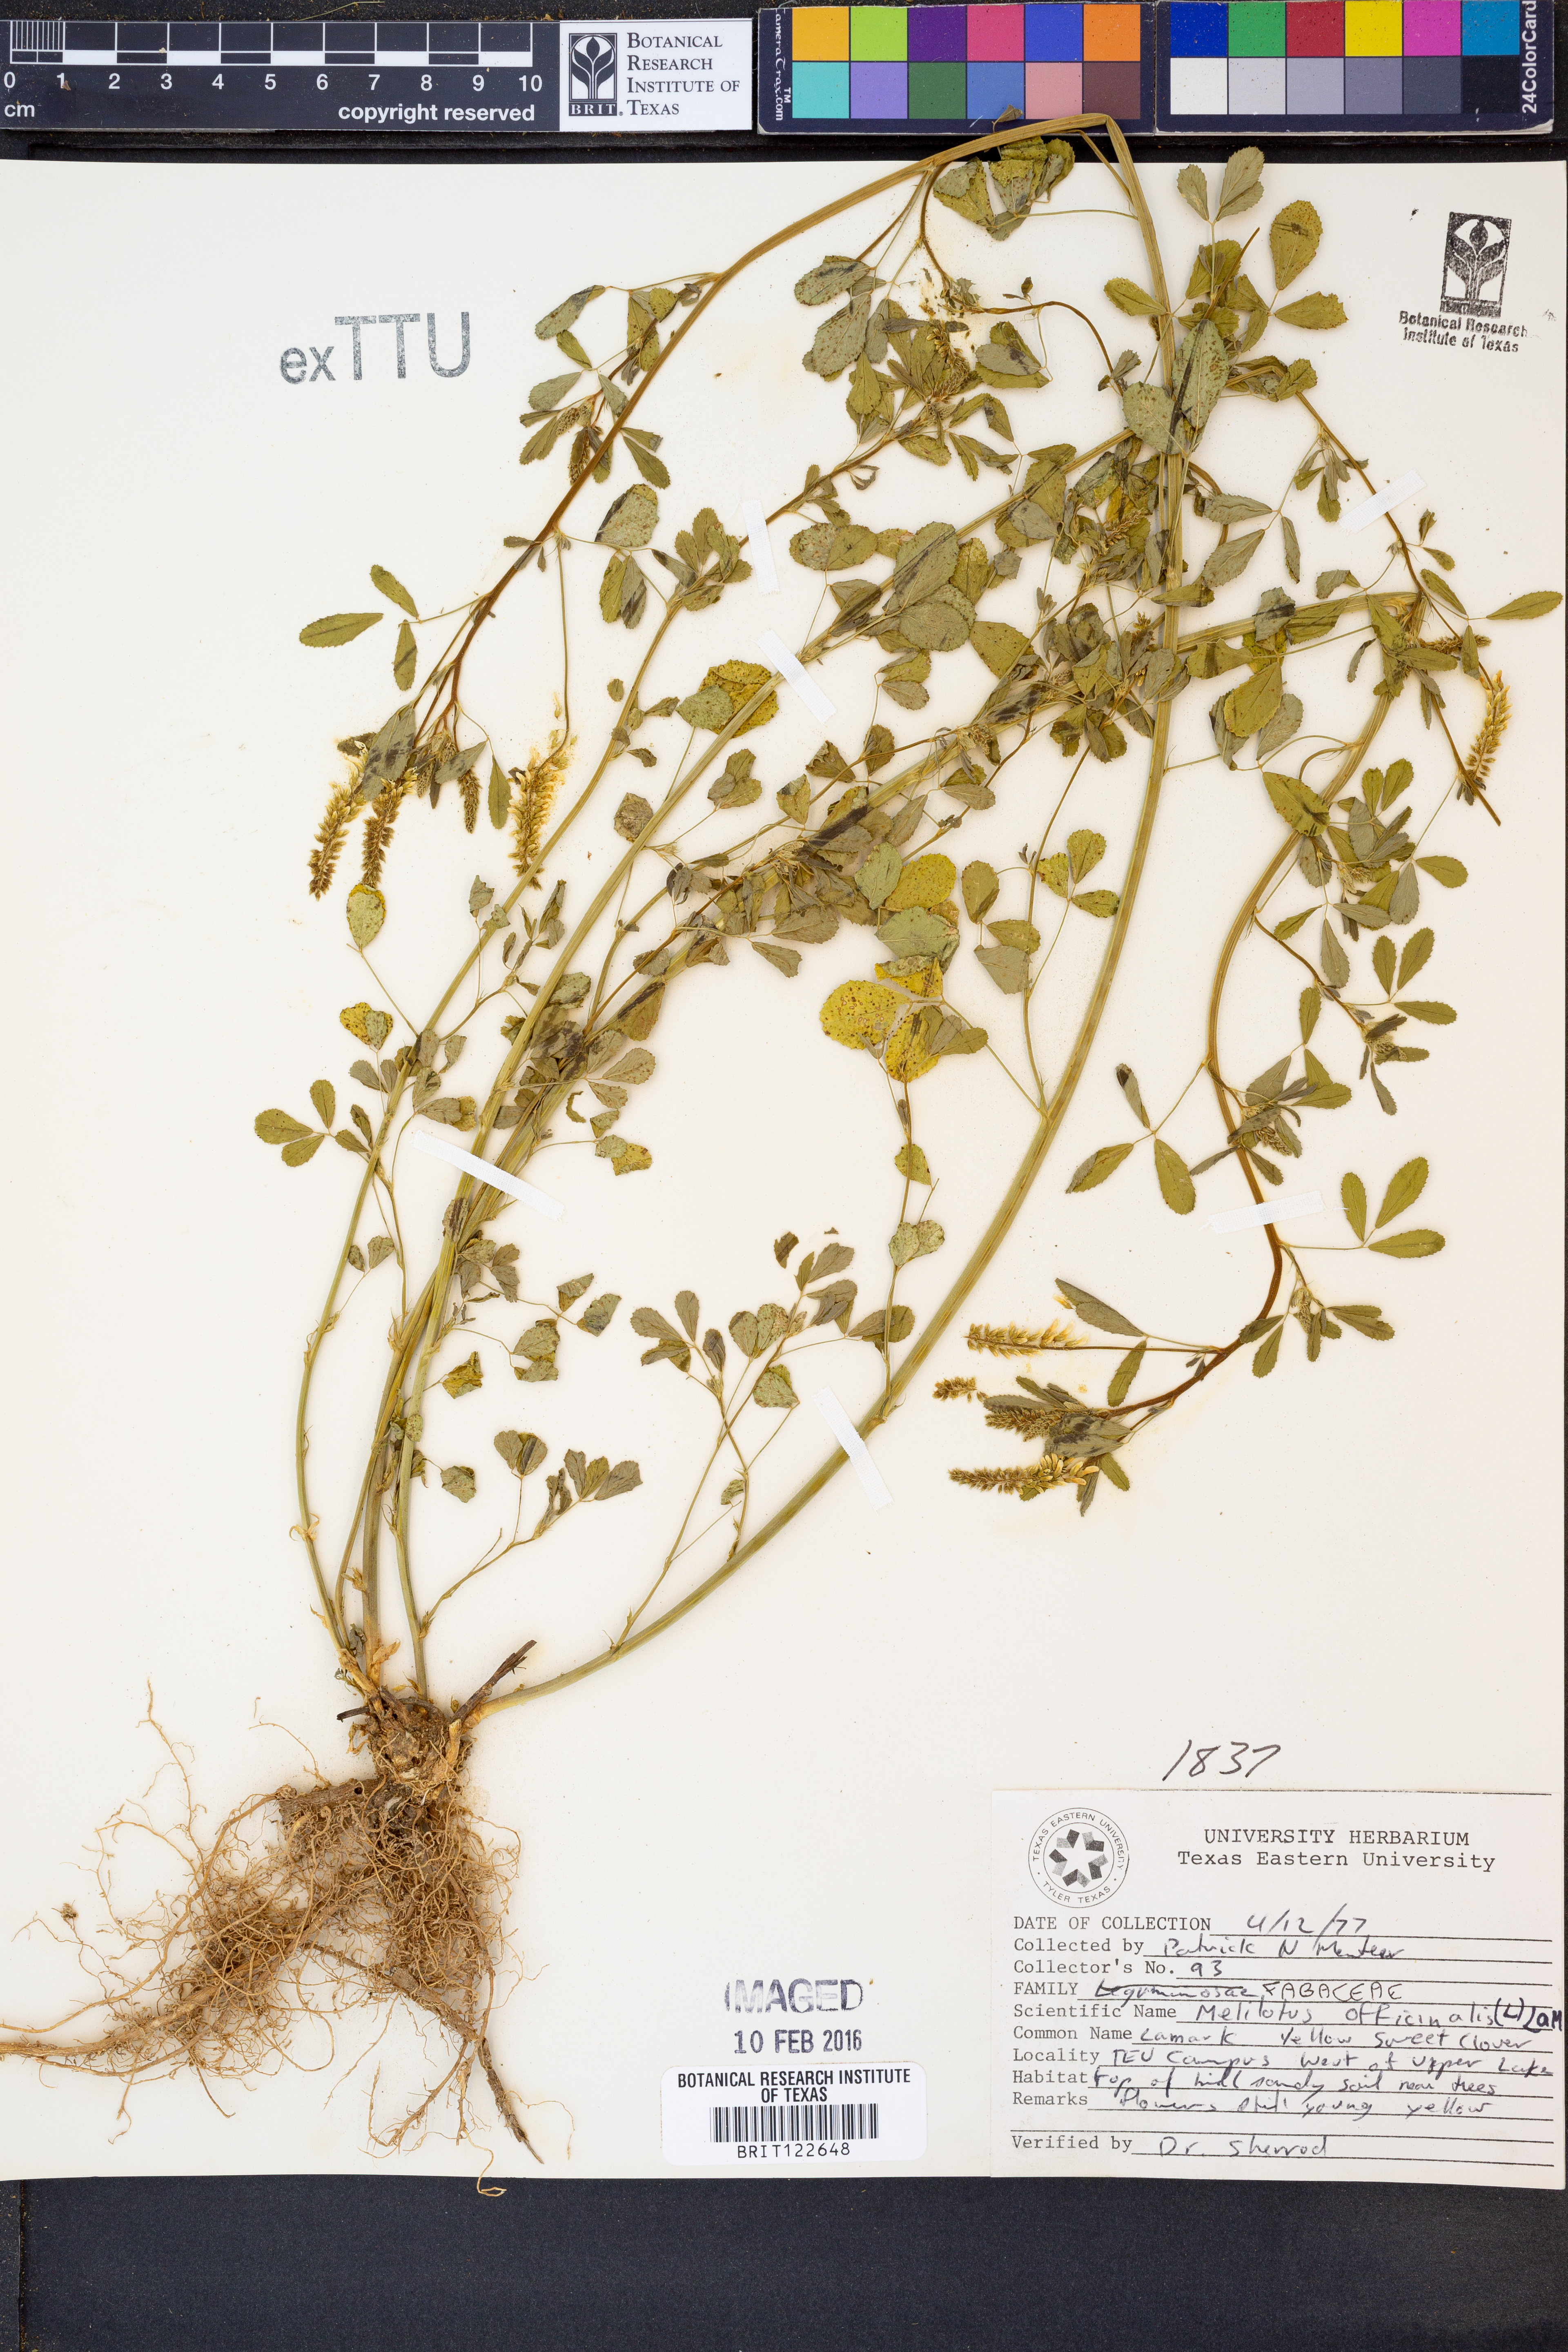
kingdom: Plantae
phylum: Tracheophyta
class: Magnoliopsida
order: Fabales
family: Fabaceae
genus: Melilotus
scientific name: Melilotus officinalis
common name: Sweetclover
